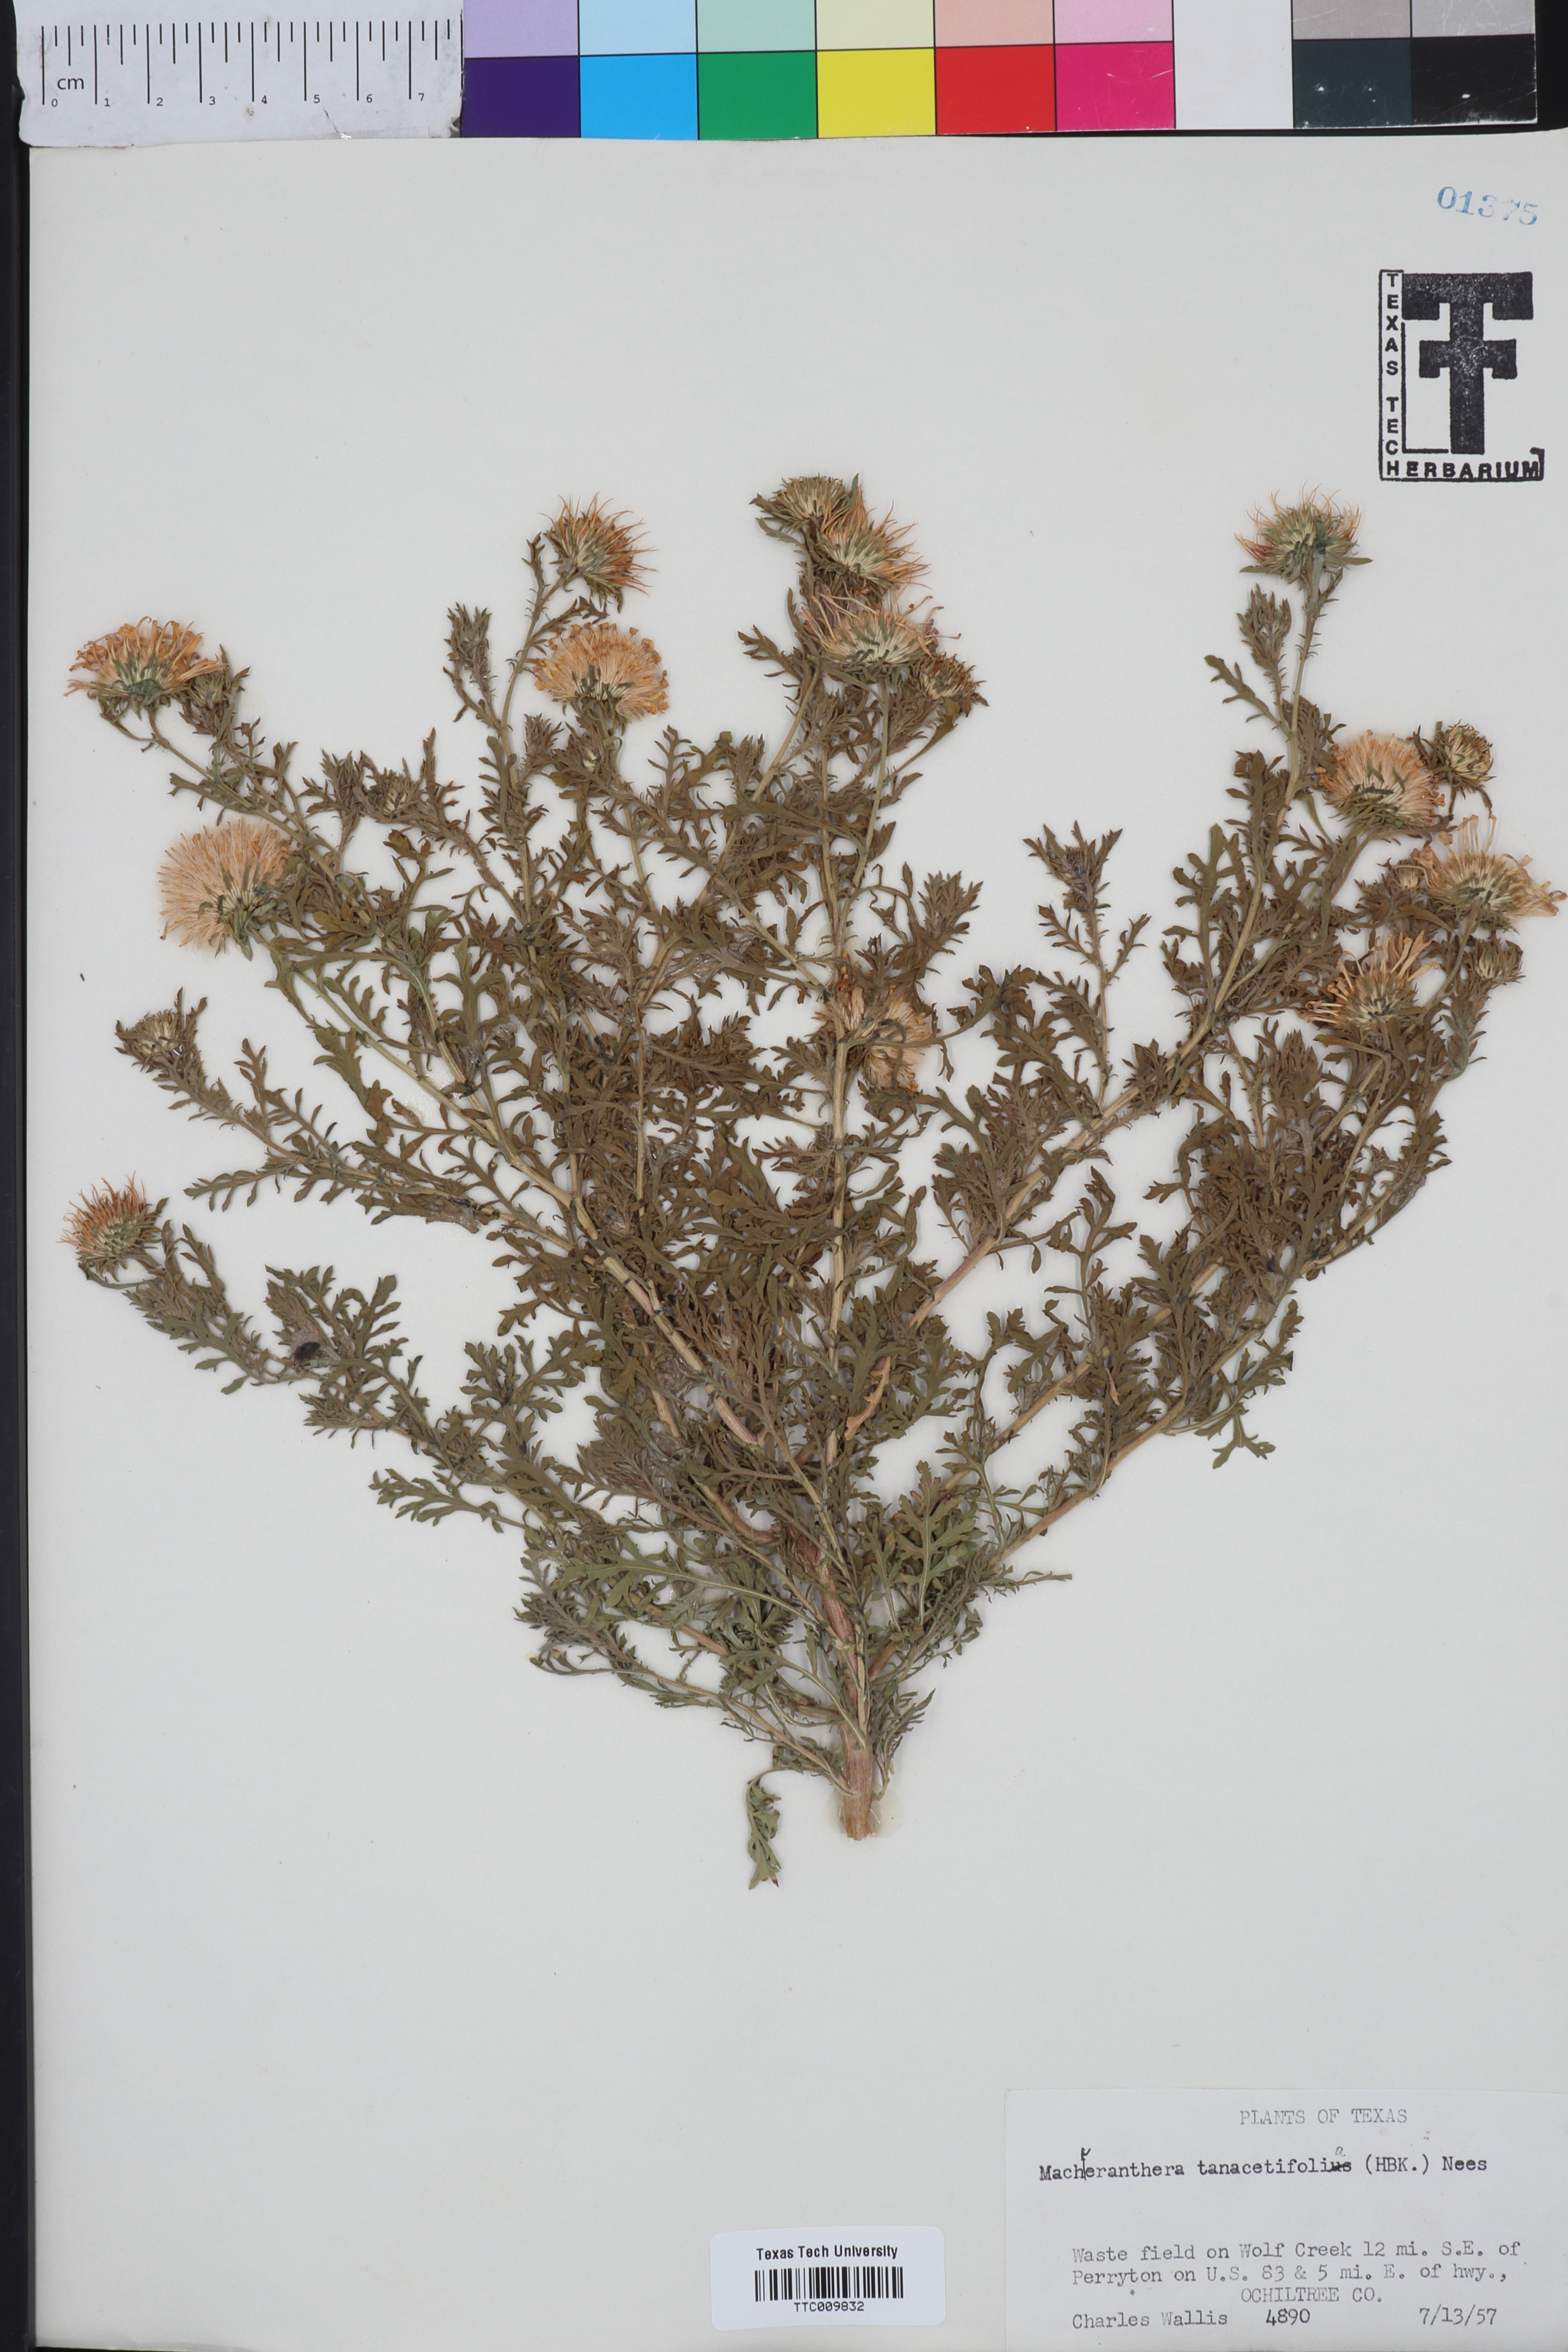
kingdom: Plantae
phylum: Tracheophyta
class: Magnoliopsida
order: Asterales
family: Asteraceae
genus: Machaeranthera
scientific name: Machaeranthera tanacetifolia
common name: Tansy-aster
